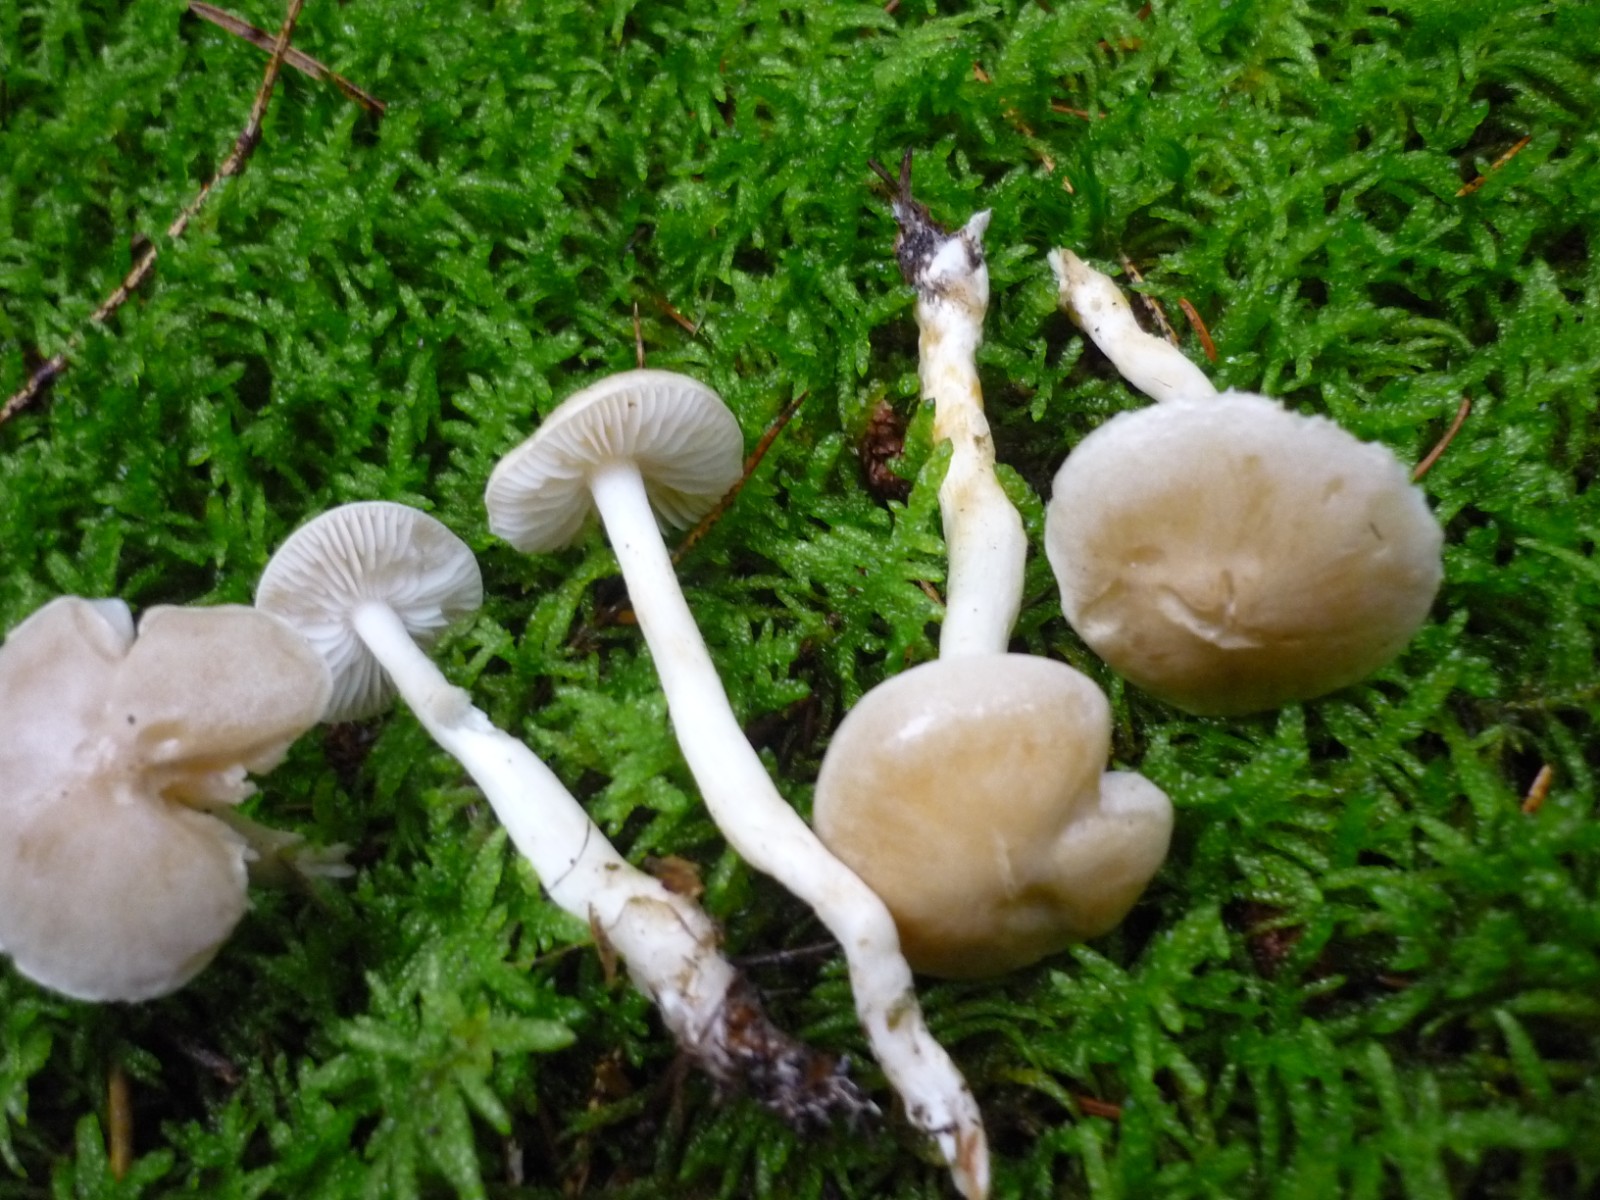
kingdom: Fungi
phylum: Basidiomycota
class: Agaricomycetes
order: Agaricales
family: Hygrophoraceae
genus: Hygrophorus
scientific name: Hygrophorus agathosmus
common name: vellugtende sneglehat
